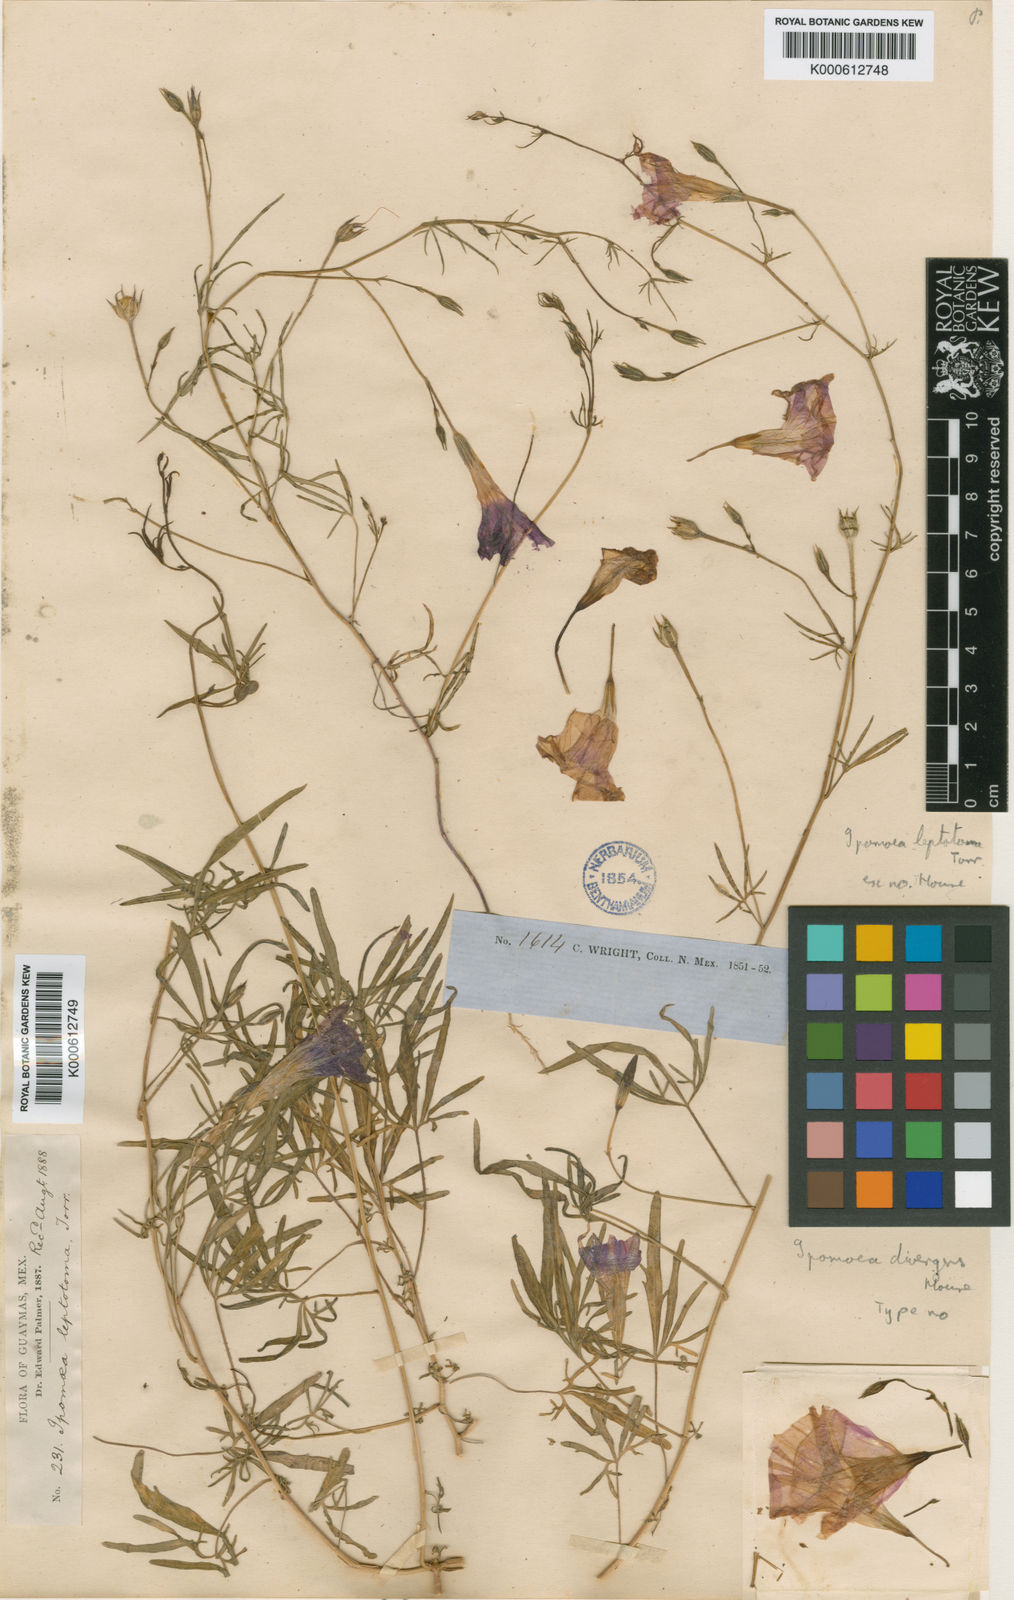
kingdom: Plantae
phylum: Tracheophyta
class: Magnoliopsida
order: Solanales
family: Convolvulaceae
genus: Ipomoea
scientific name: Ipomoea lindenii
